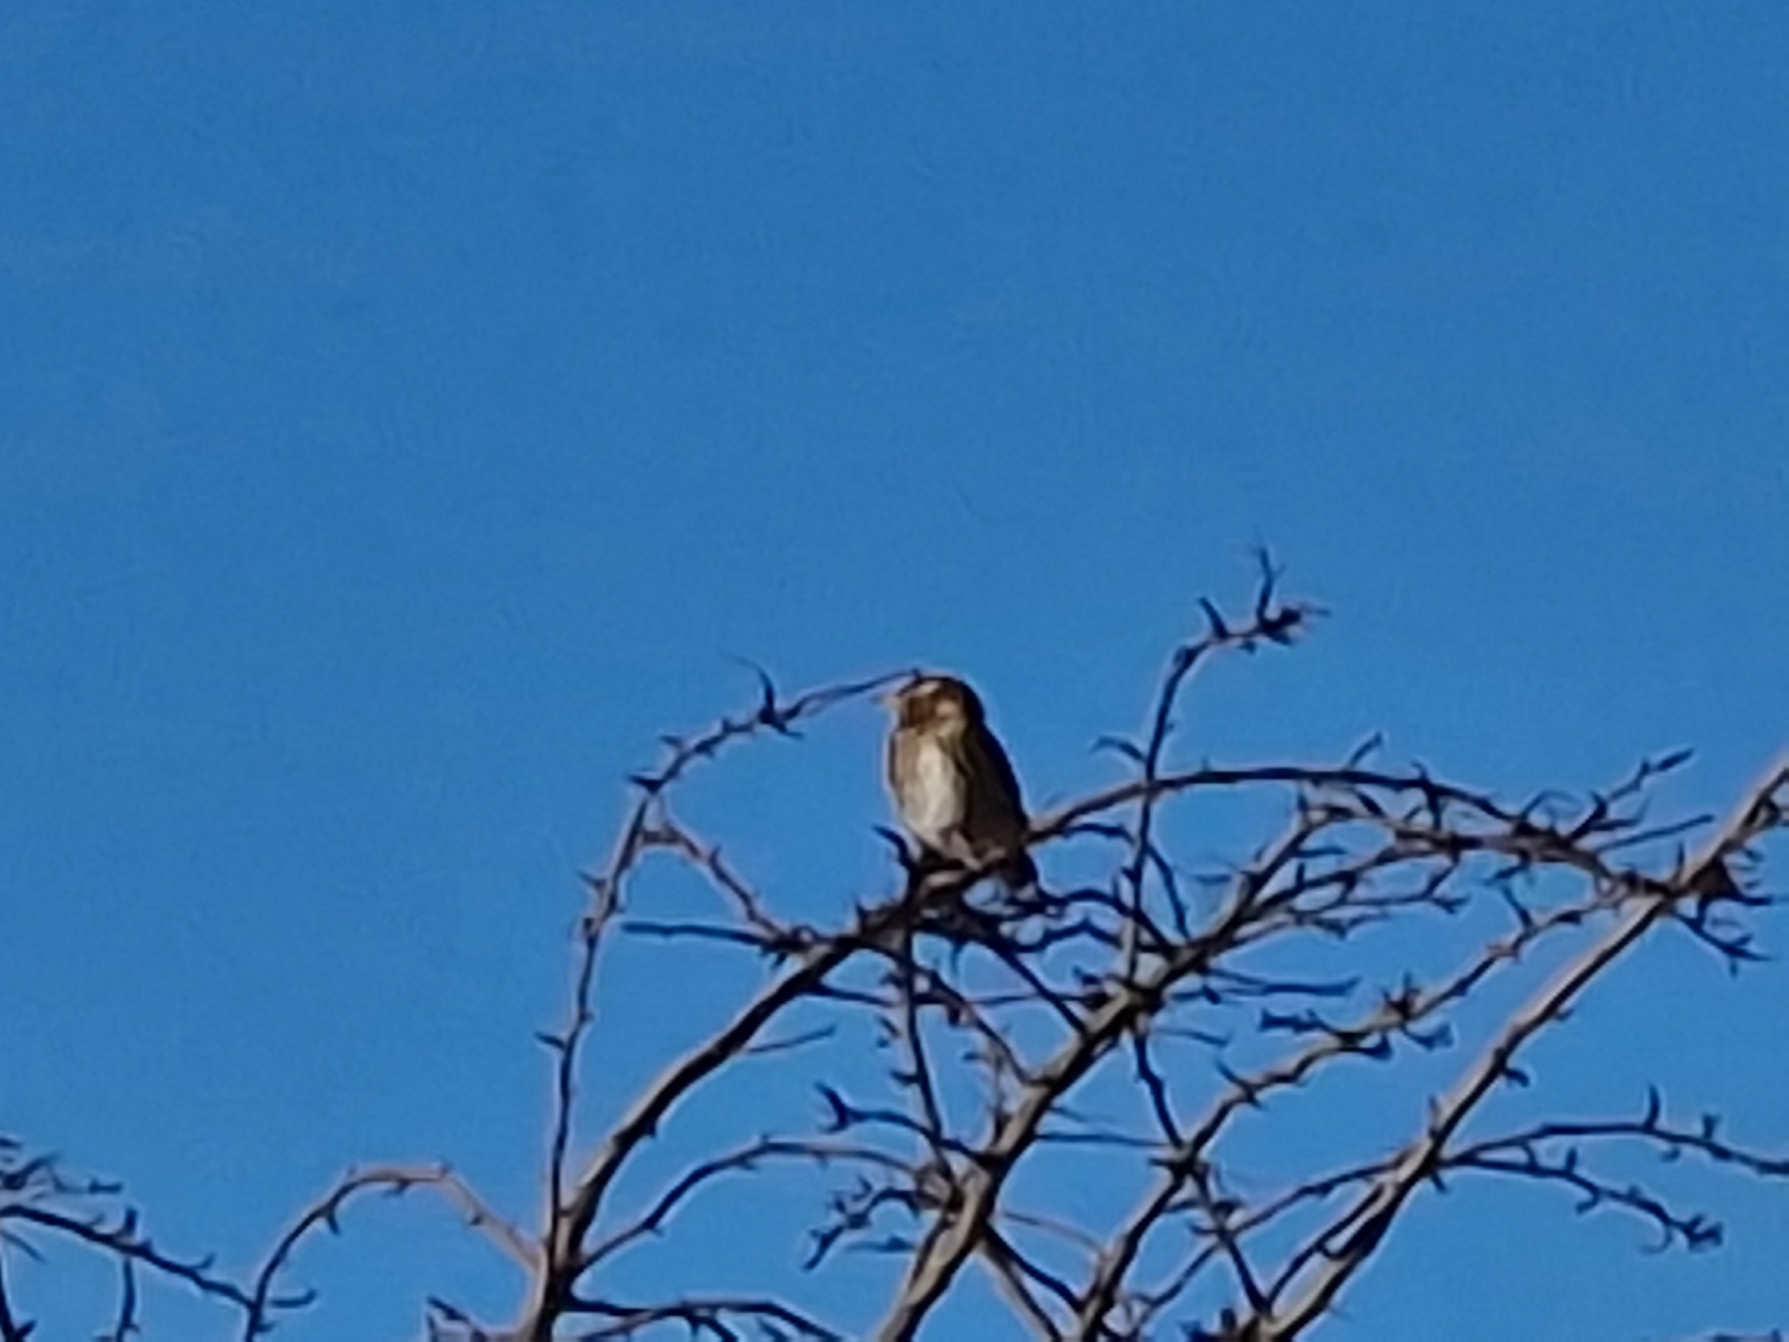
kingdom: Animalia
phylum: Chordata
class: Aves
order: Passeriformes
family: Turdidae
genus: Turdus
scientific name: Turdus iliacus
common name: Vindrossel
